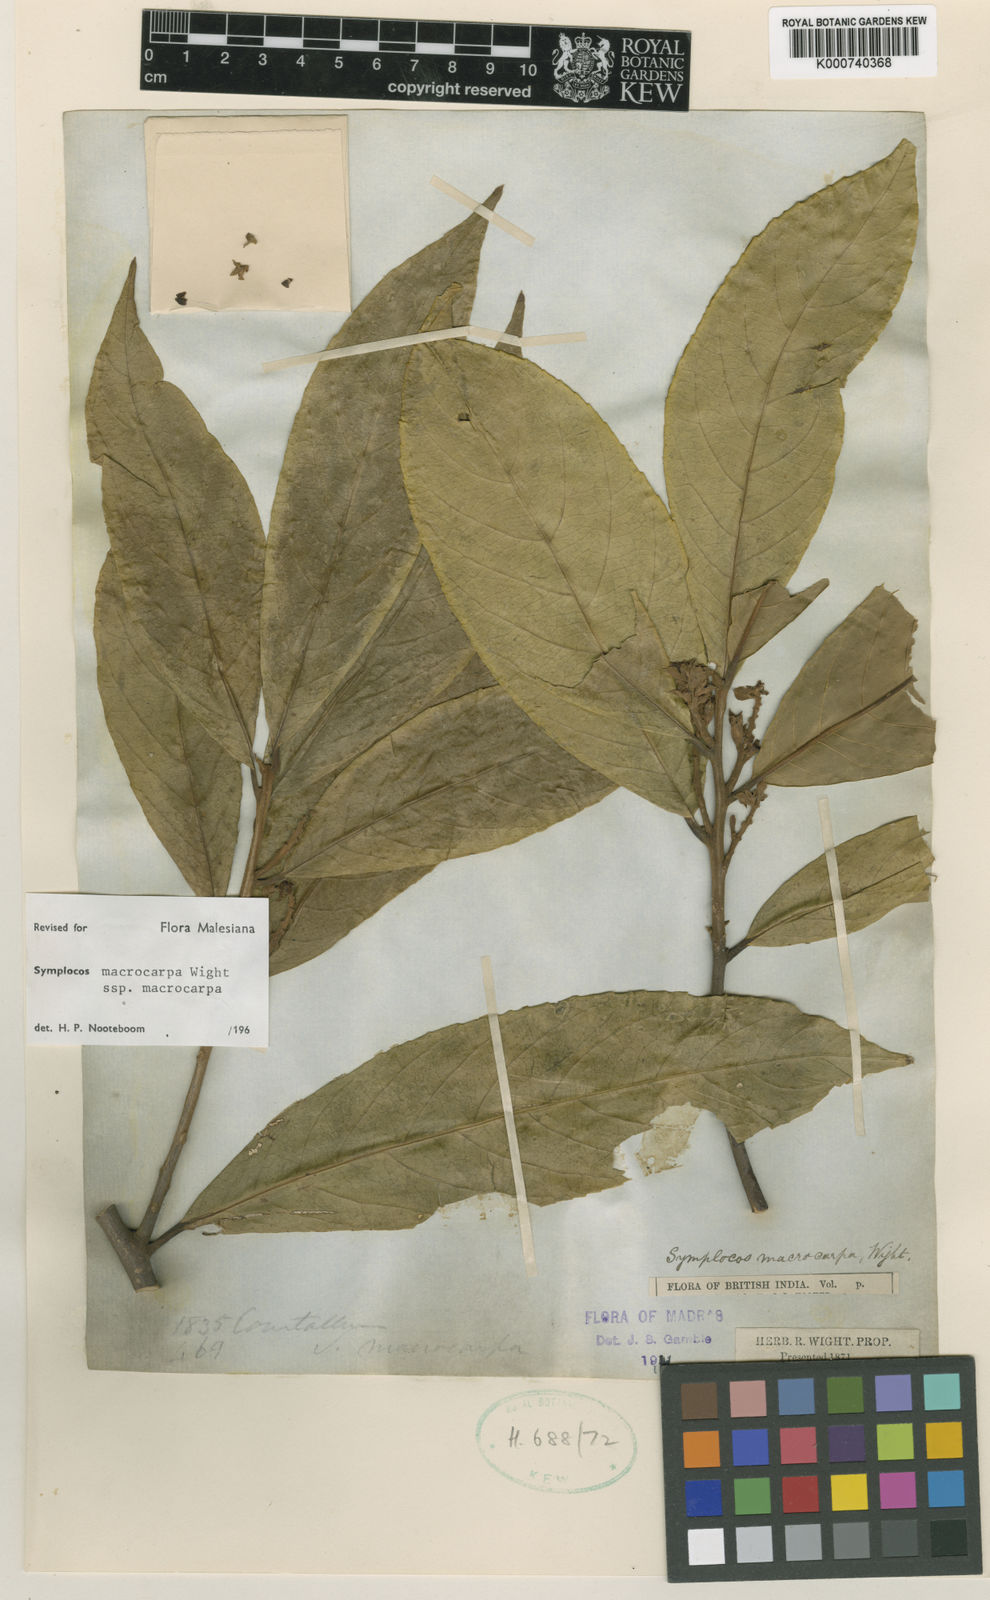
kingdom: Plantae
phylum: Tracheophyta
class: Magnoliopsida
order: Ericales
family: Symplocaceae
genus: Symplocos
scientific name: Symplocos macrocarpa
